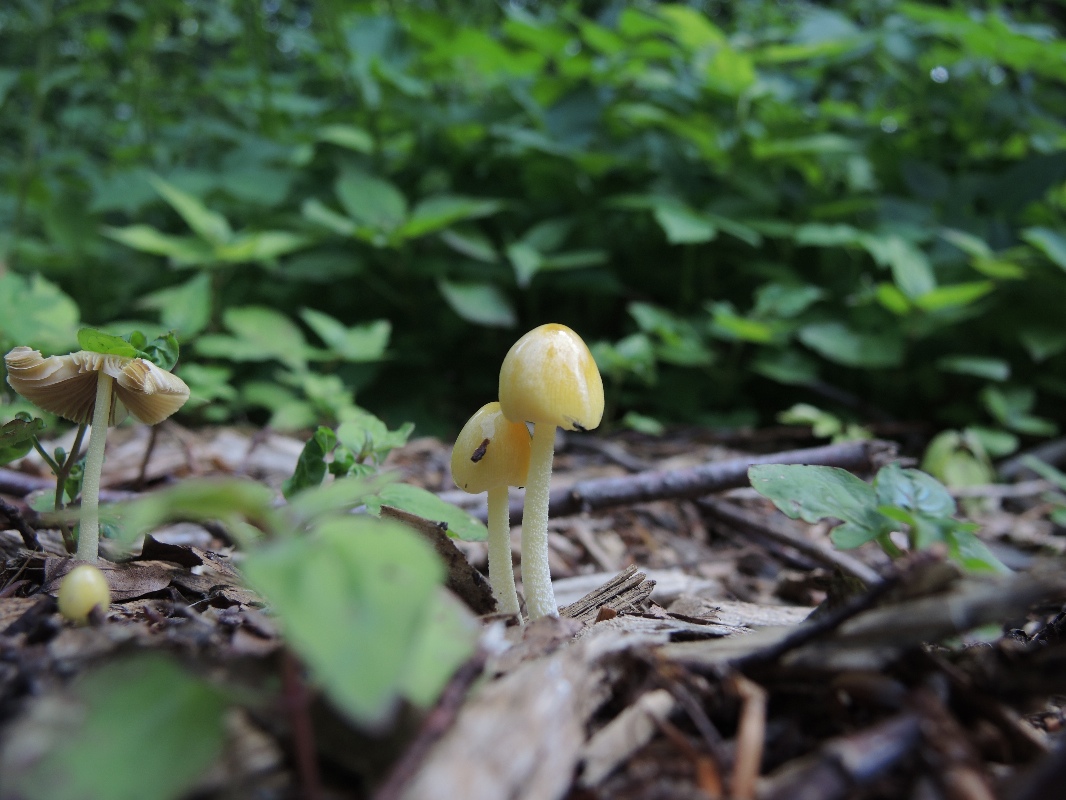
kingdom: Fungi
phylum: Basidiomycota
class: Agaricomycetes
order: Agaricales
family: Bolbitiaceae
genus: Bolbitius
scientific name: Bolbitius titubans
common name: almindelig gulhat
